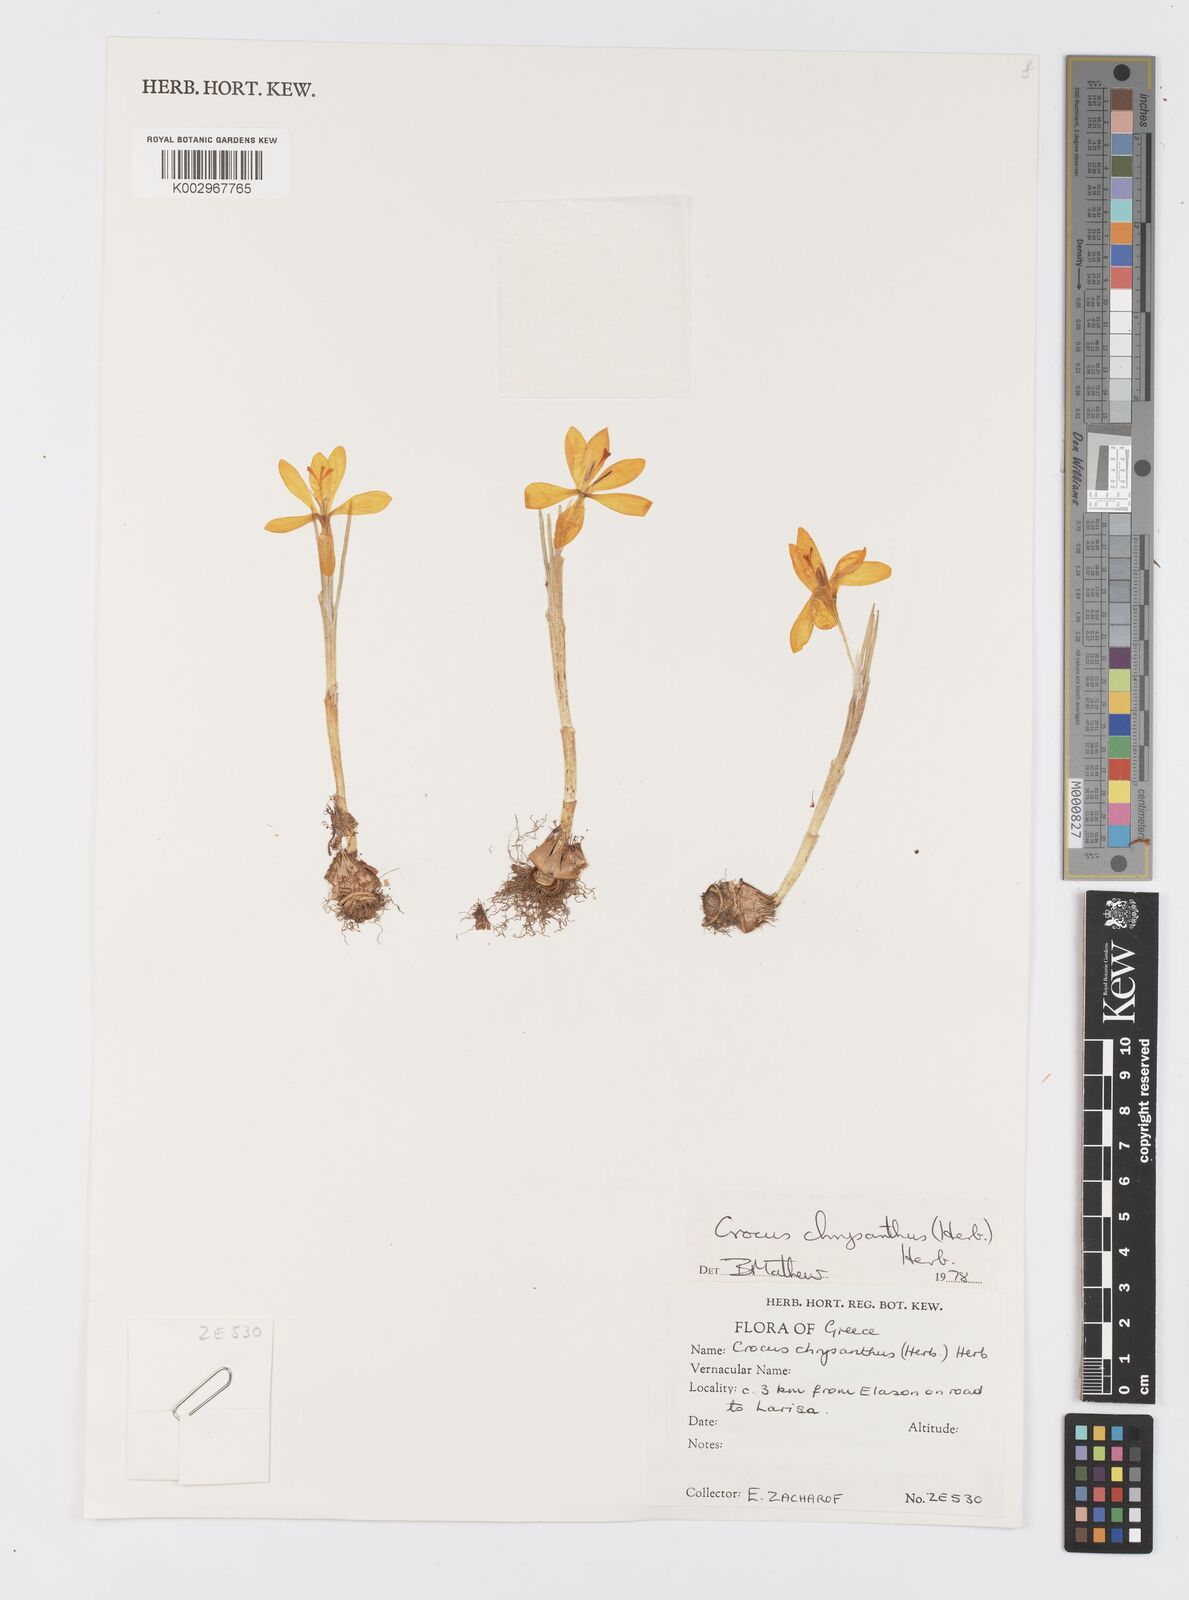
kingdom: Plantae
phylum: Tracheophyta
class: Liliopsida
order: Asparagales
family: Iridaceae
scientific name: Iridaceae
